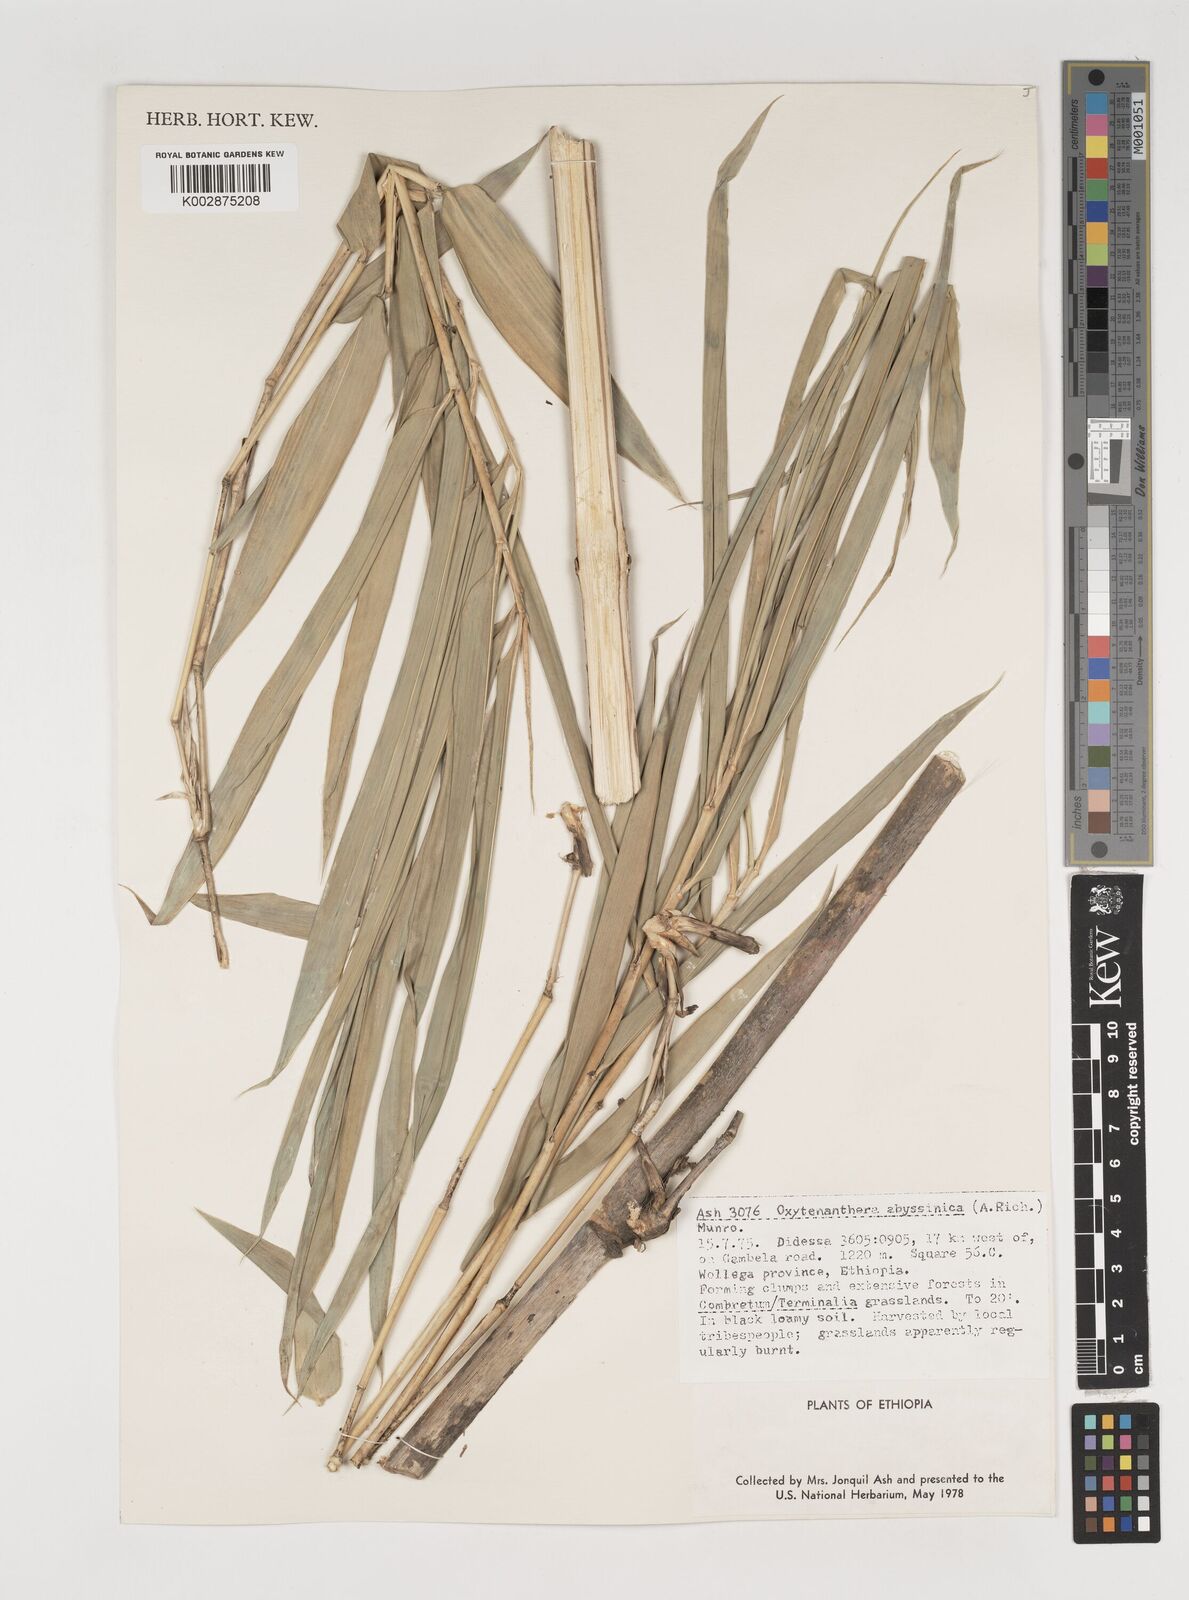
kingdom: Plantae
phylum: Tracheophyta
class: Liliopsida
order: Poales
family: Poaceae
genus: Oxytenanthera
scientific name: Oxytenanthera abyssinica
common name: Wine bamboo
